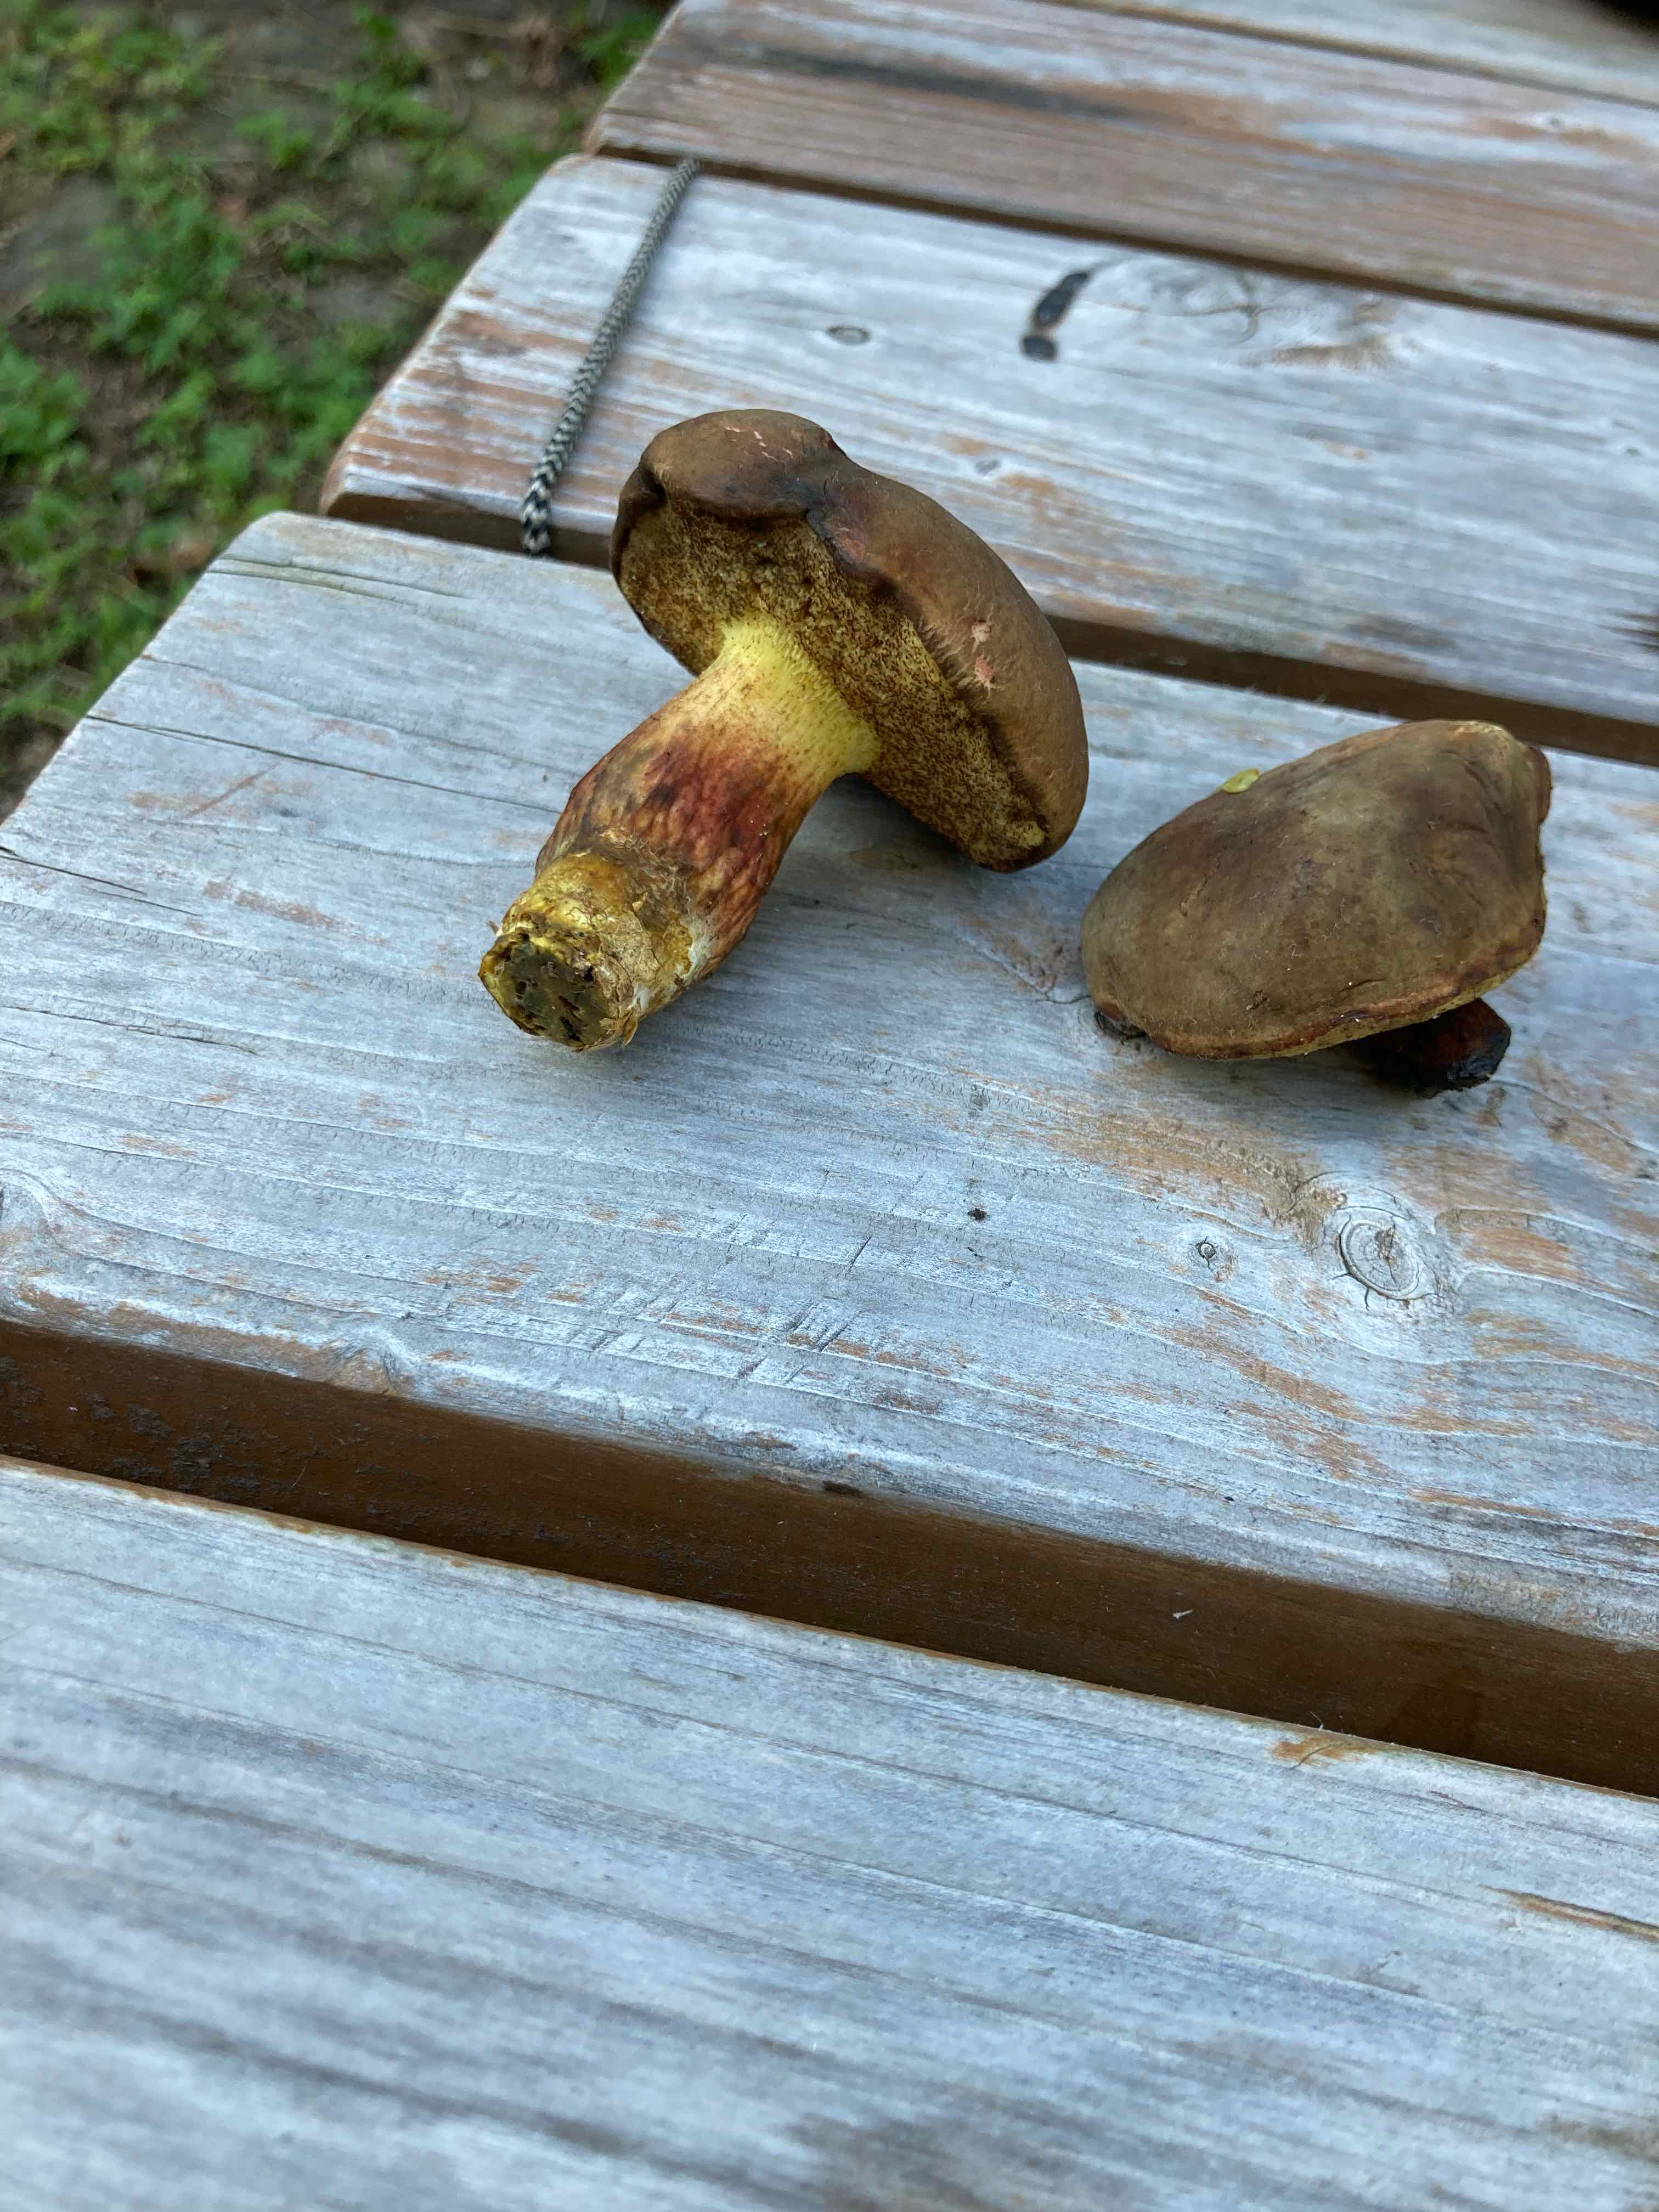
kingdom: Fungi
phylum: Basidiomycota
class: Agaricomycetes
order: Boletales
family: Boletaceae
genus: Xerocomellus
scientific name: Xerocomellus
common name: dværgrørhat
